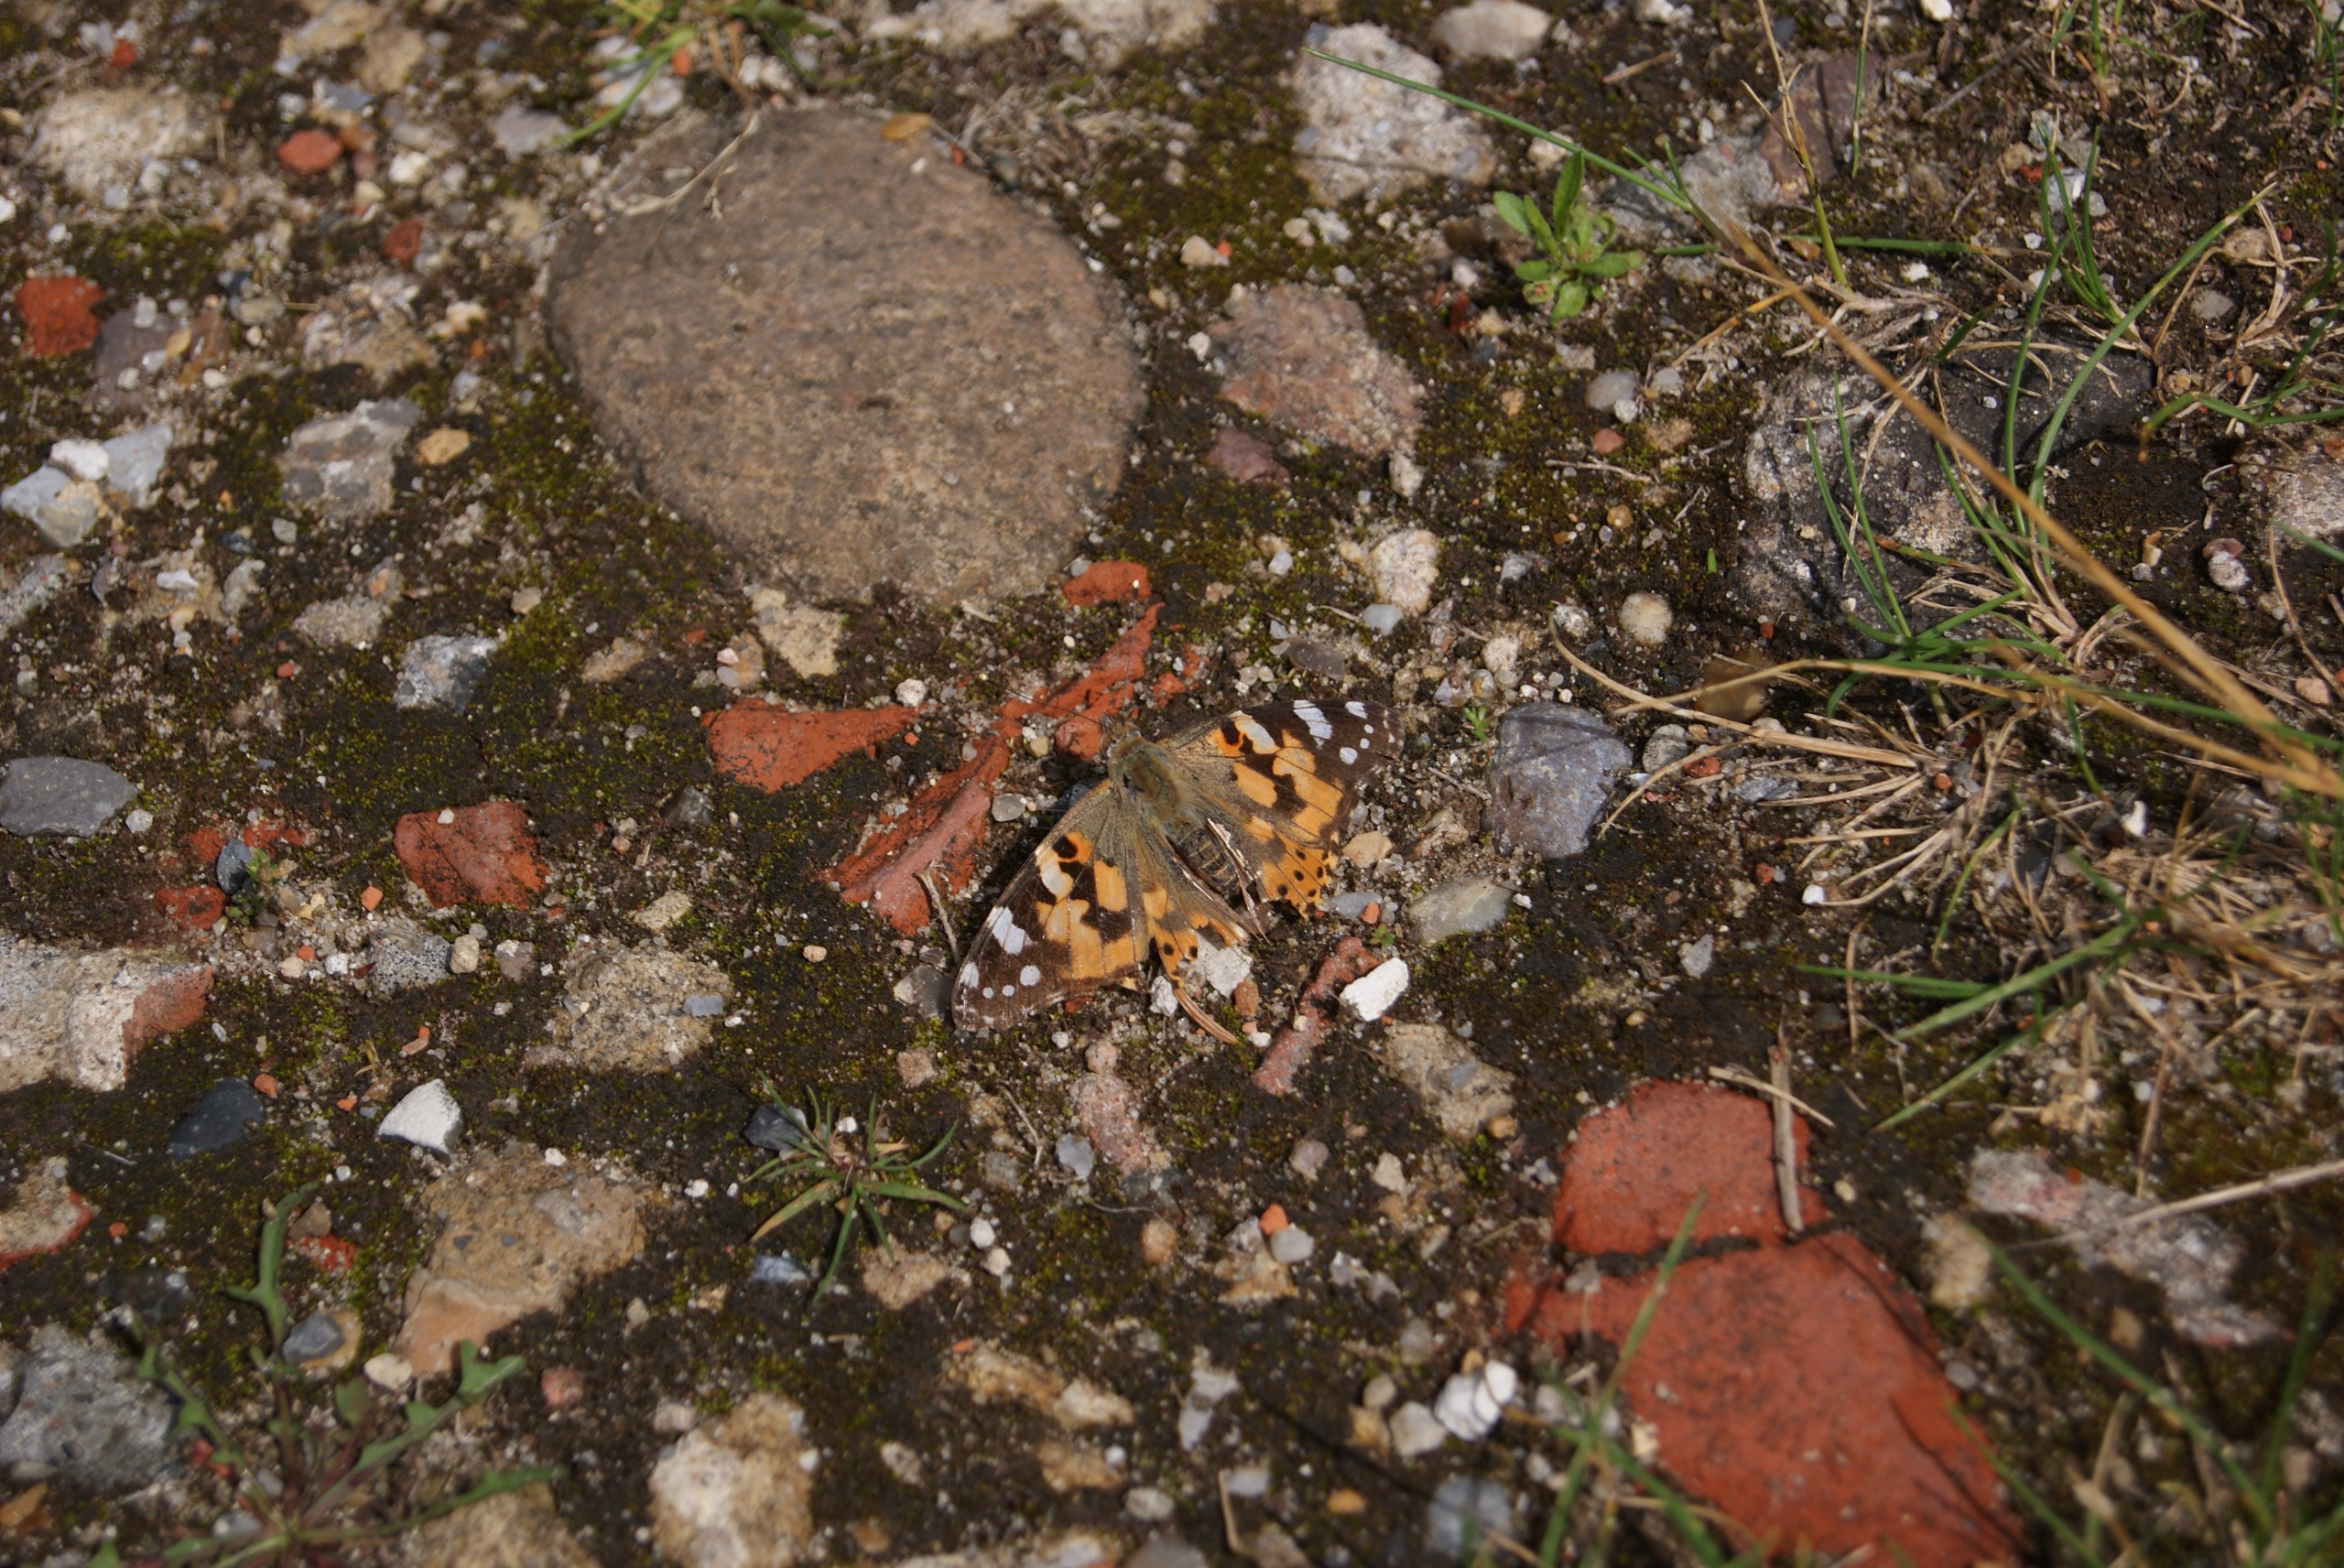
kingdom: Animalia
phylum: Arthropoda
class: Insecta
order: Lepidoptera
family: Nymphalidae
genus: Vanessa
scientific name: Vanessa cardui
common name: Tidselsommerfugl
